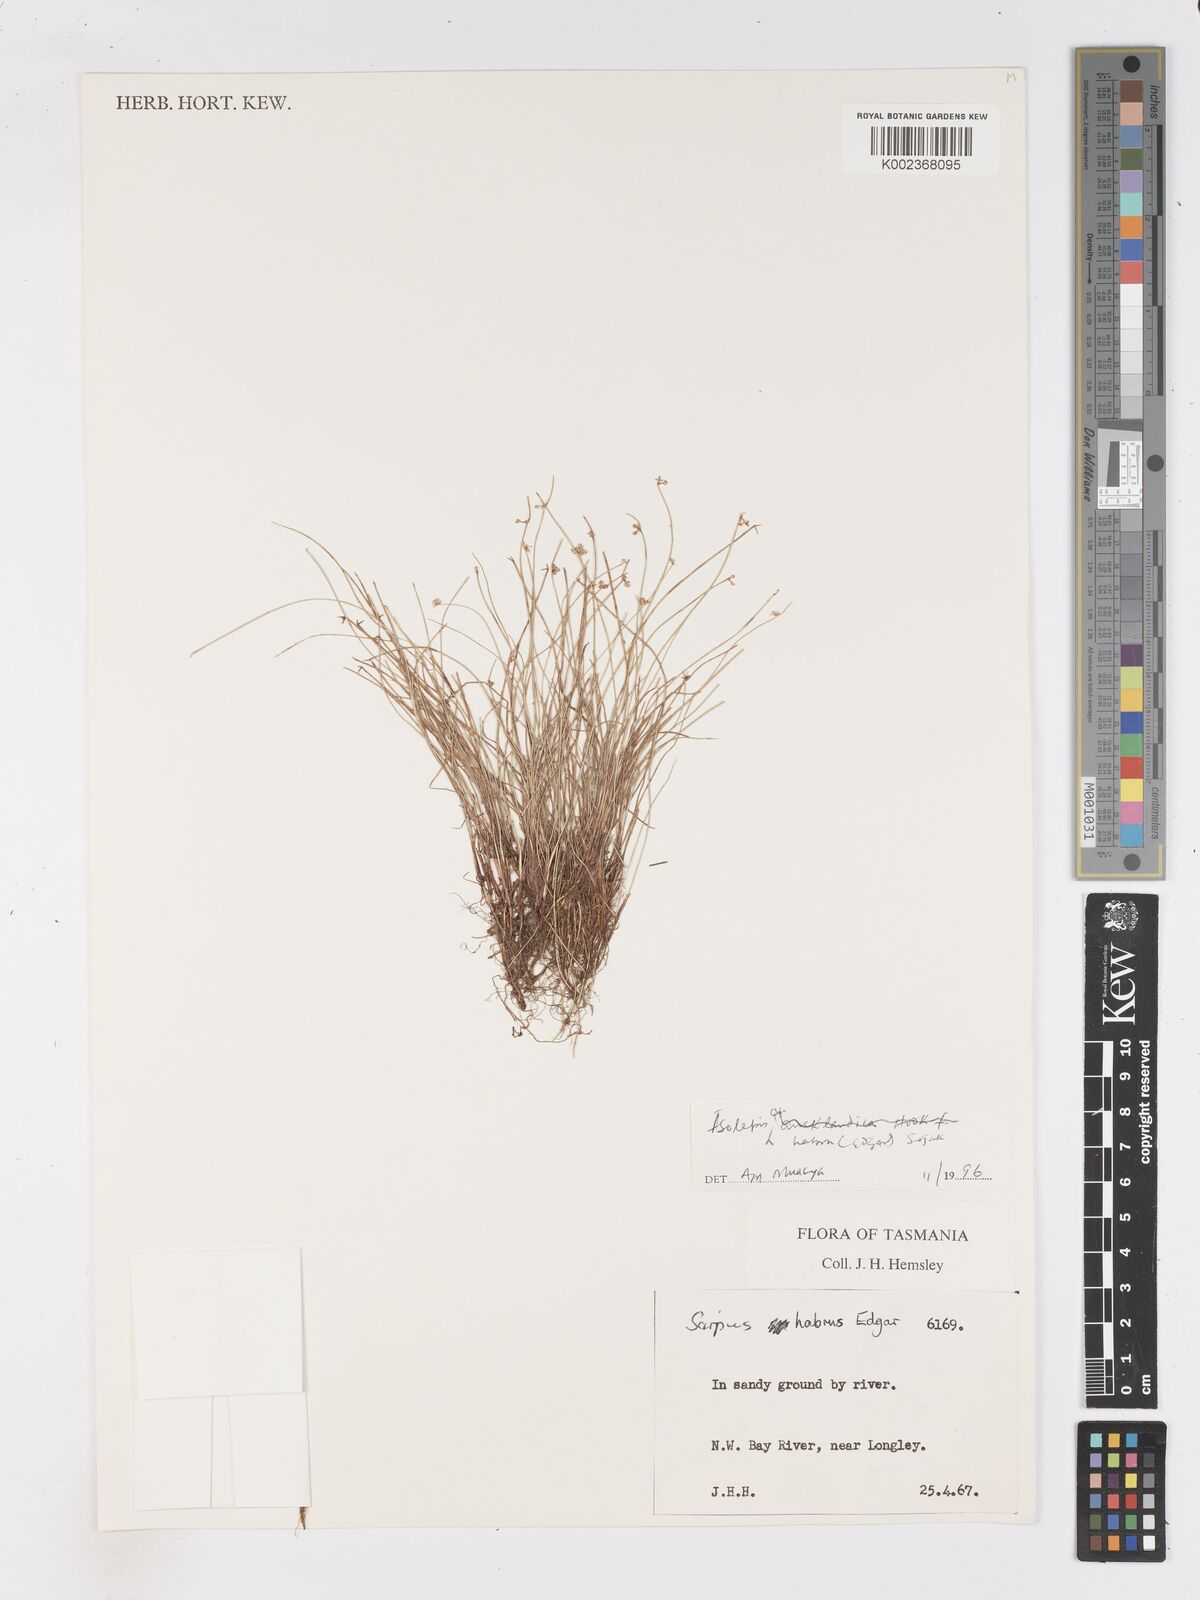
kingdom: Plantae
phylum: Tracheophyta
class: Liliopsida
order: Poales
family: Cyperaceae
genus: Isolepis
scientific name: Isolepis habra
